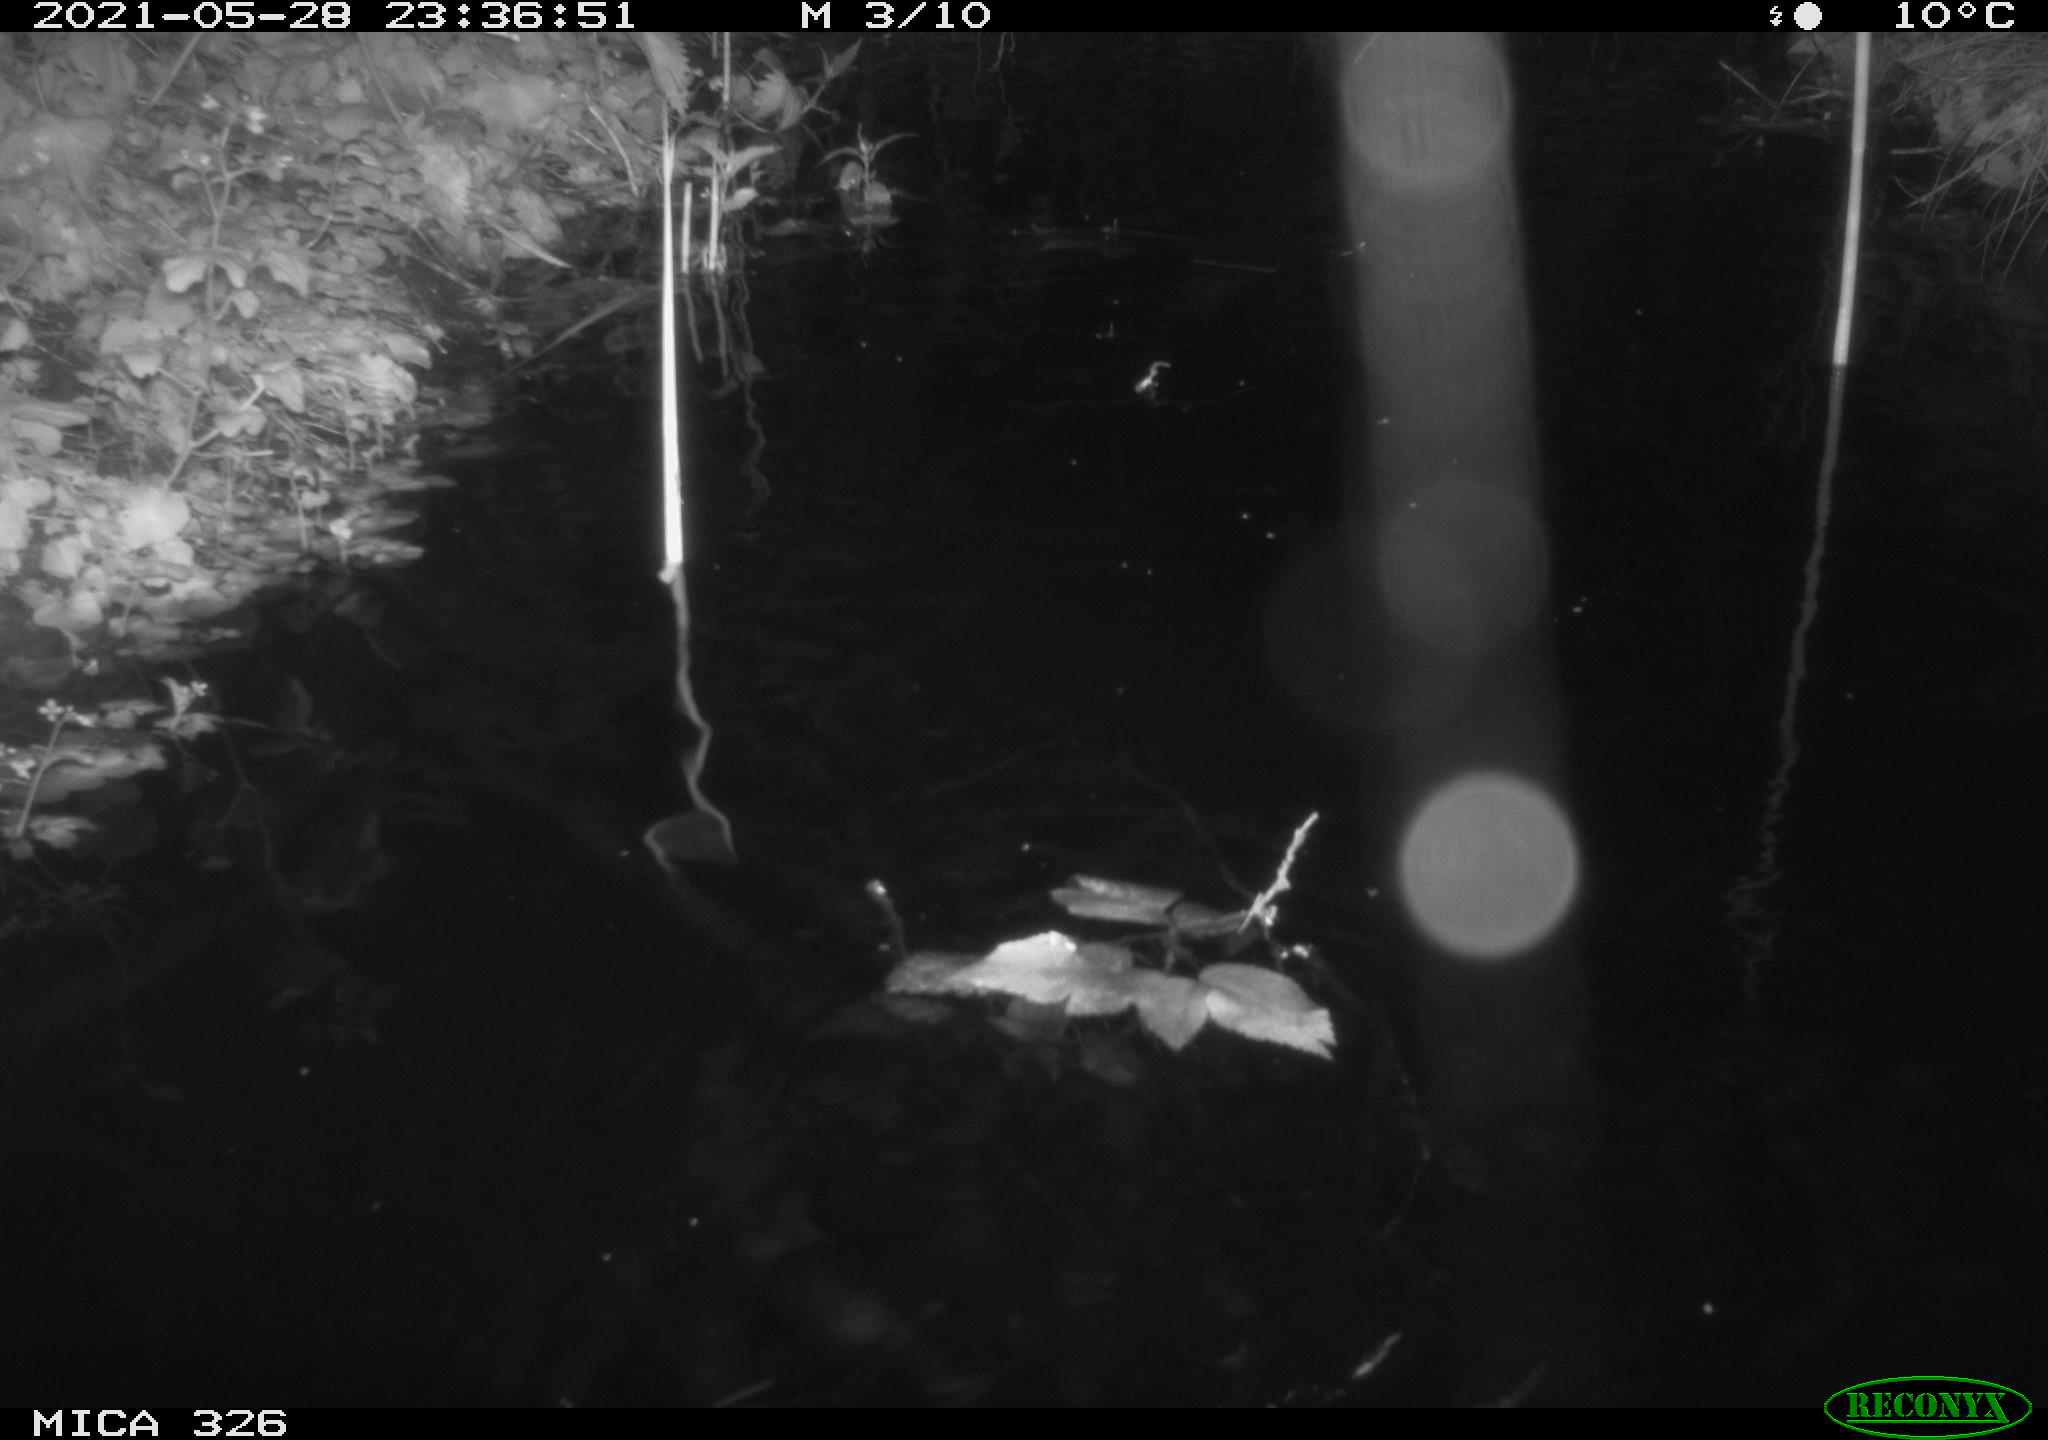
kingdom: Animalia
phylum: Chordata
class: Mammalia
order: Rodentia
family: Cricetidae
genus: Ondatra
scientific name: Ondatra zibethicus
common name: Muskrat
